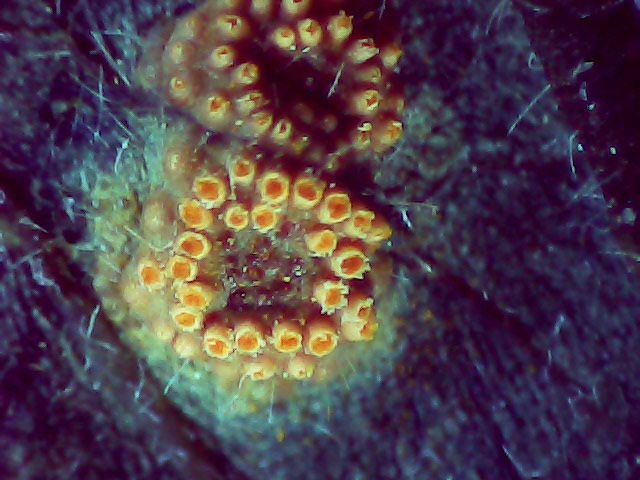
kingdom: Fungi
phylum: Basidiomycota
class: Pucciniomycetes
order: Pucciniales
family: Pucciniaceae
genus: Puccinia
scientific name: Puccinia festucae
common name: gedeblad-tvecellerust
